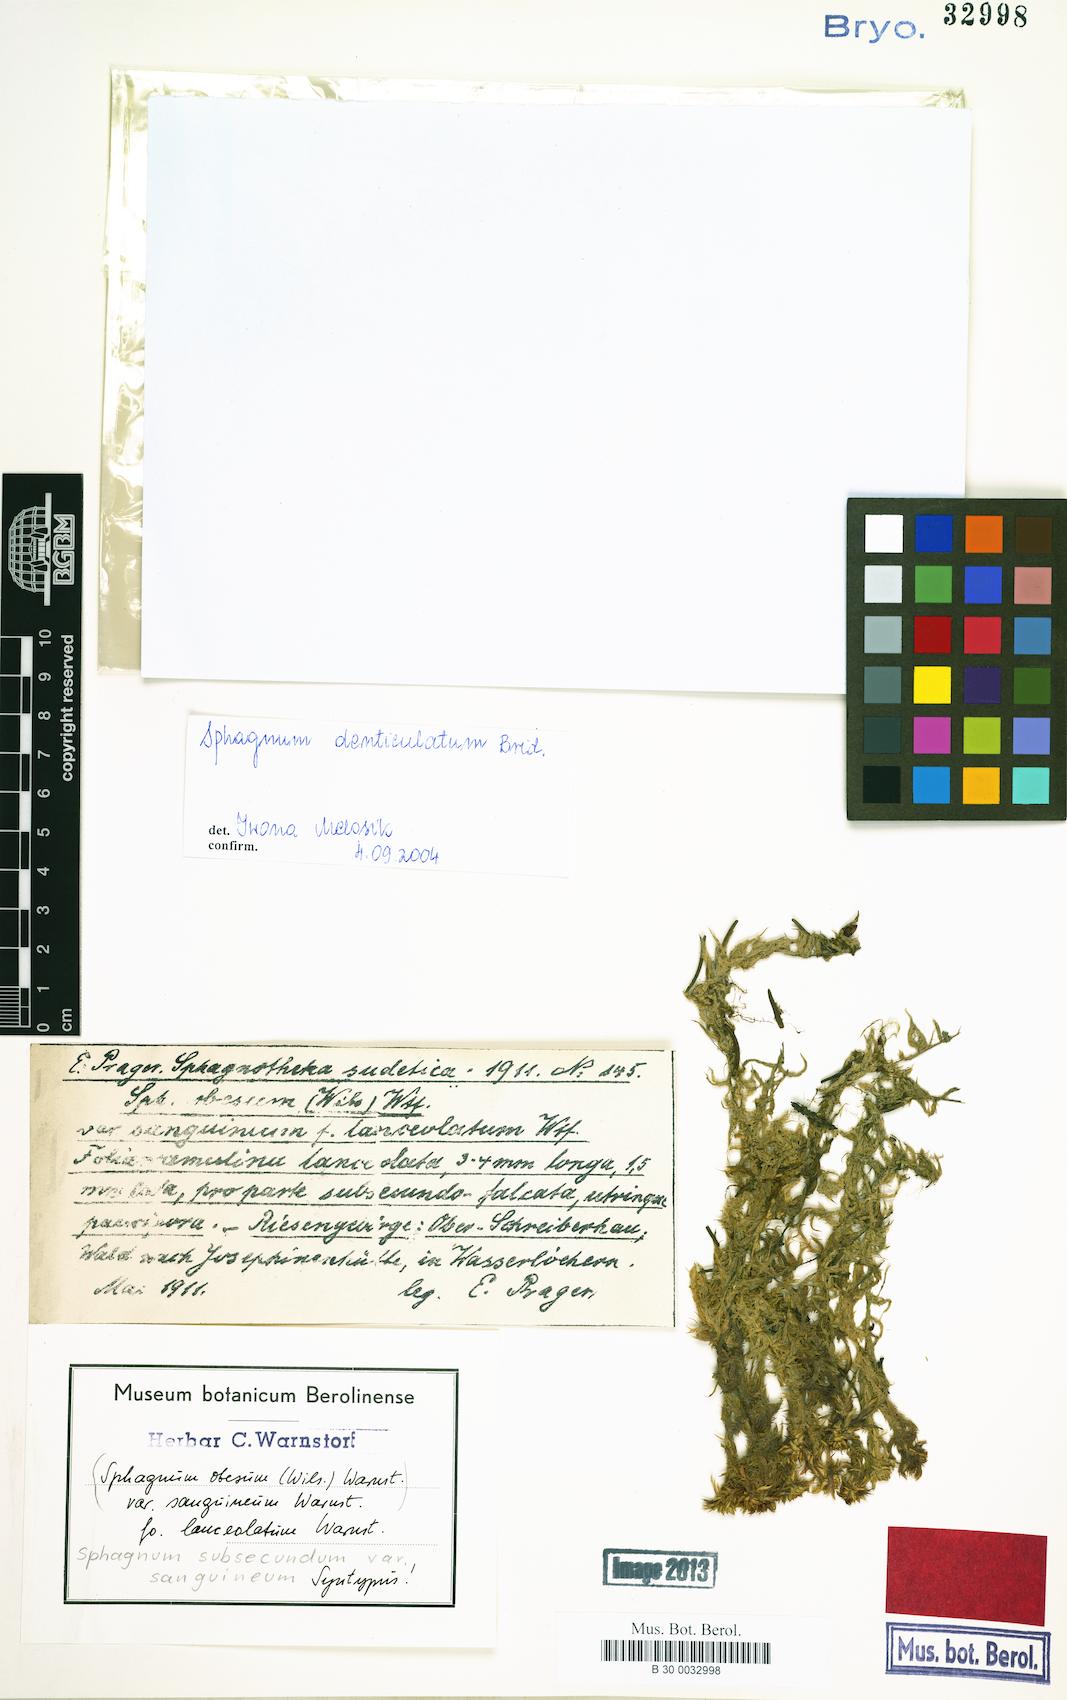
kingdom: Plantae
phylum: Bryophyta
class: Sphagnopsida
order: Sphagnales
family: Sphagnaceae
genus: Sphagnum
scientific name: Sphagnum denticulatum
